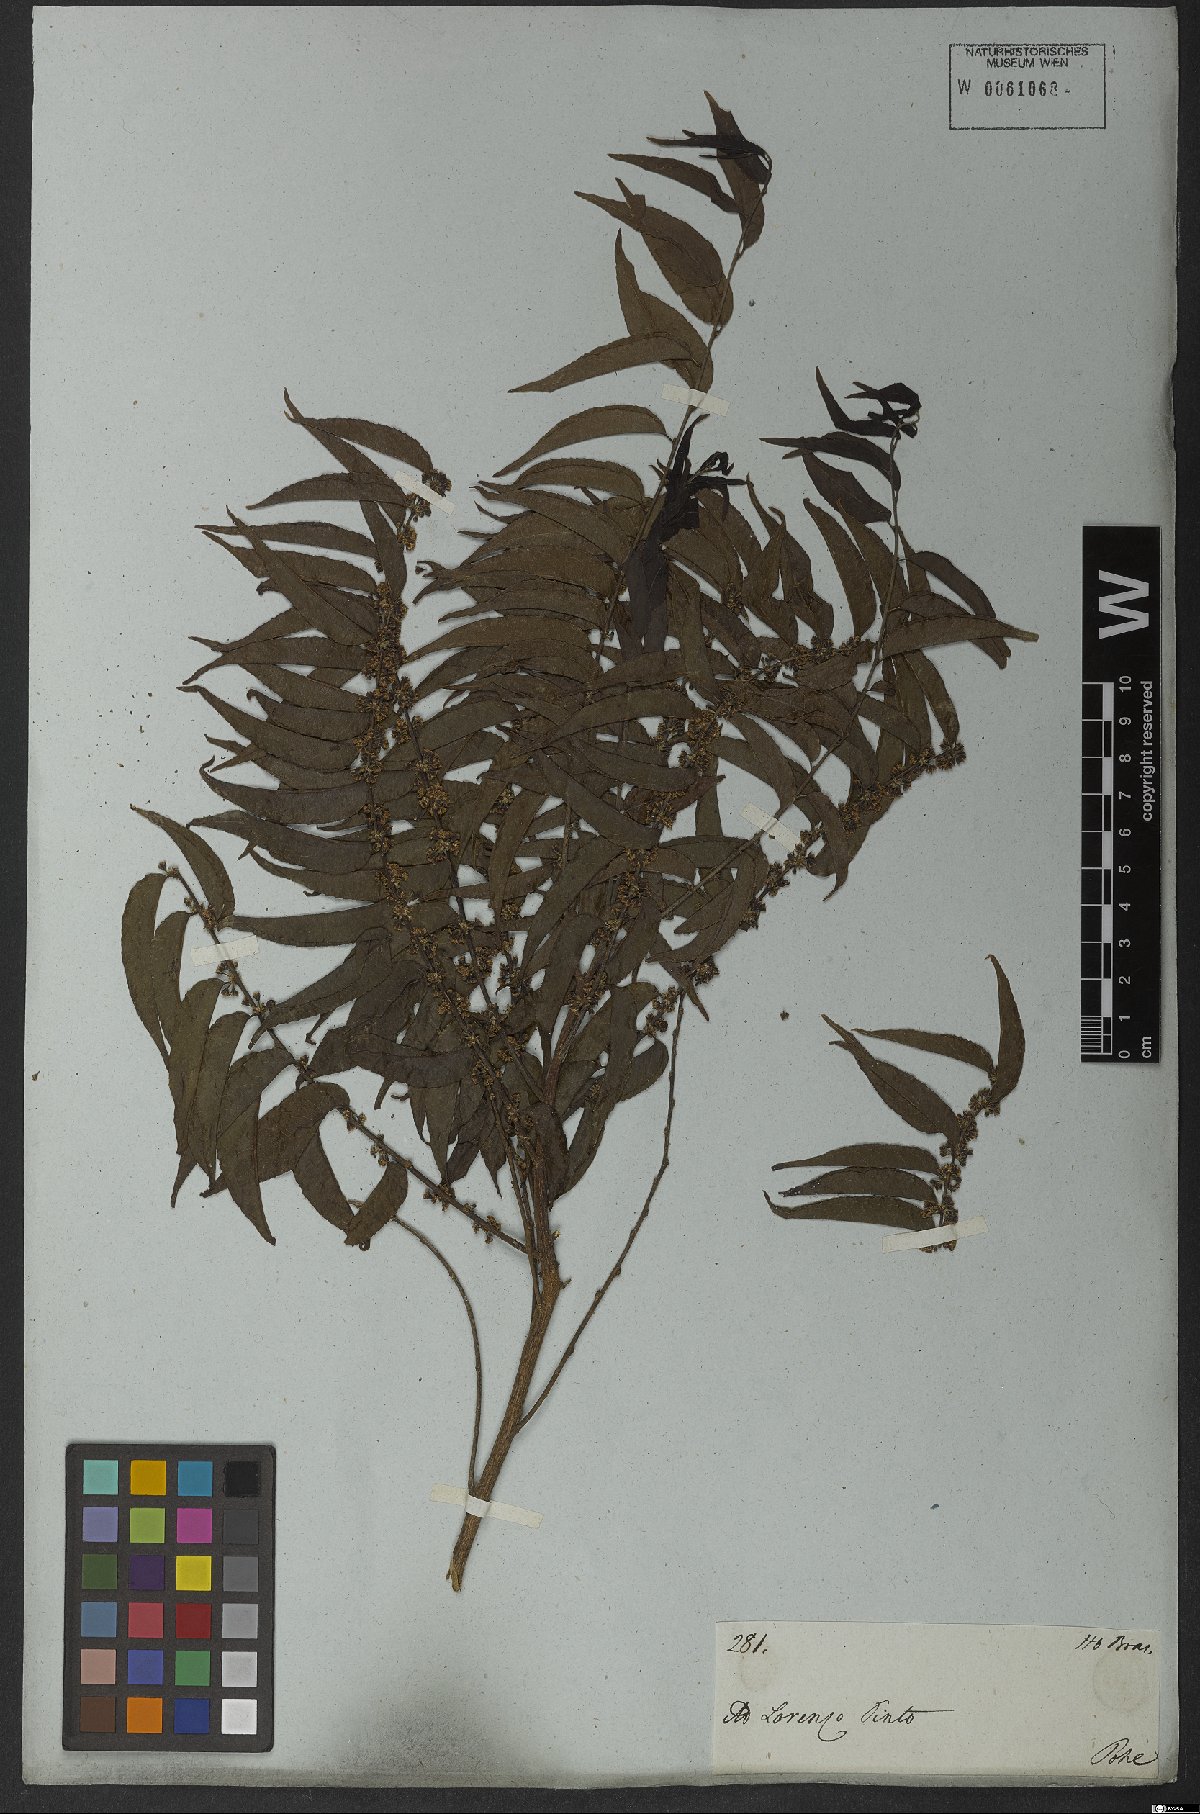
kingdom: Plantae
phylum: Tracheophyta
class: Magnoliopsida
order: Malpighiales
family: Salicaceae
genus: Casearia
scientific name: Casearia sylvestris
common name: Wild sage
